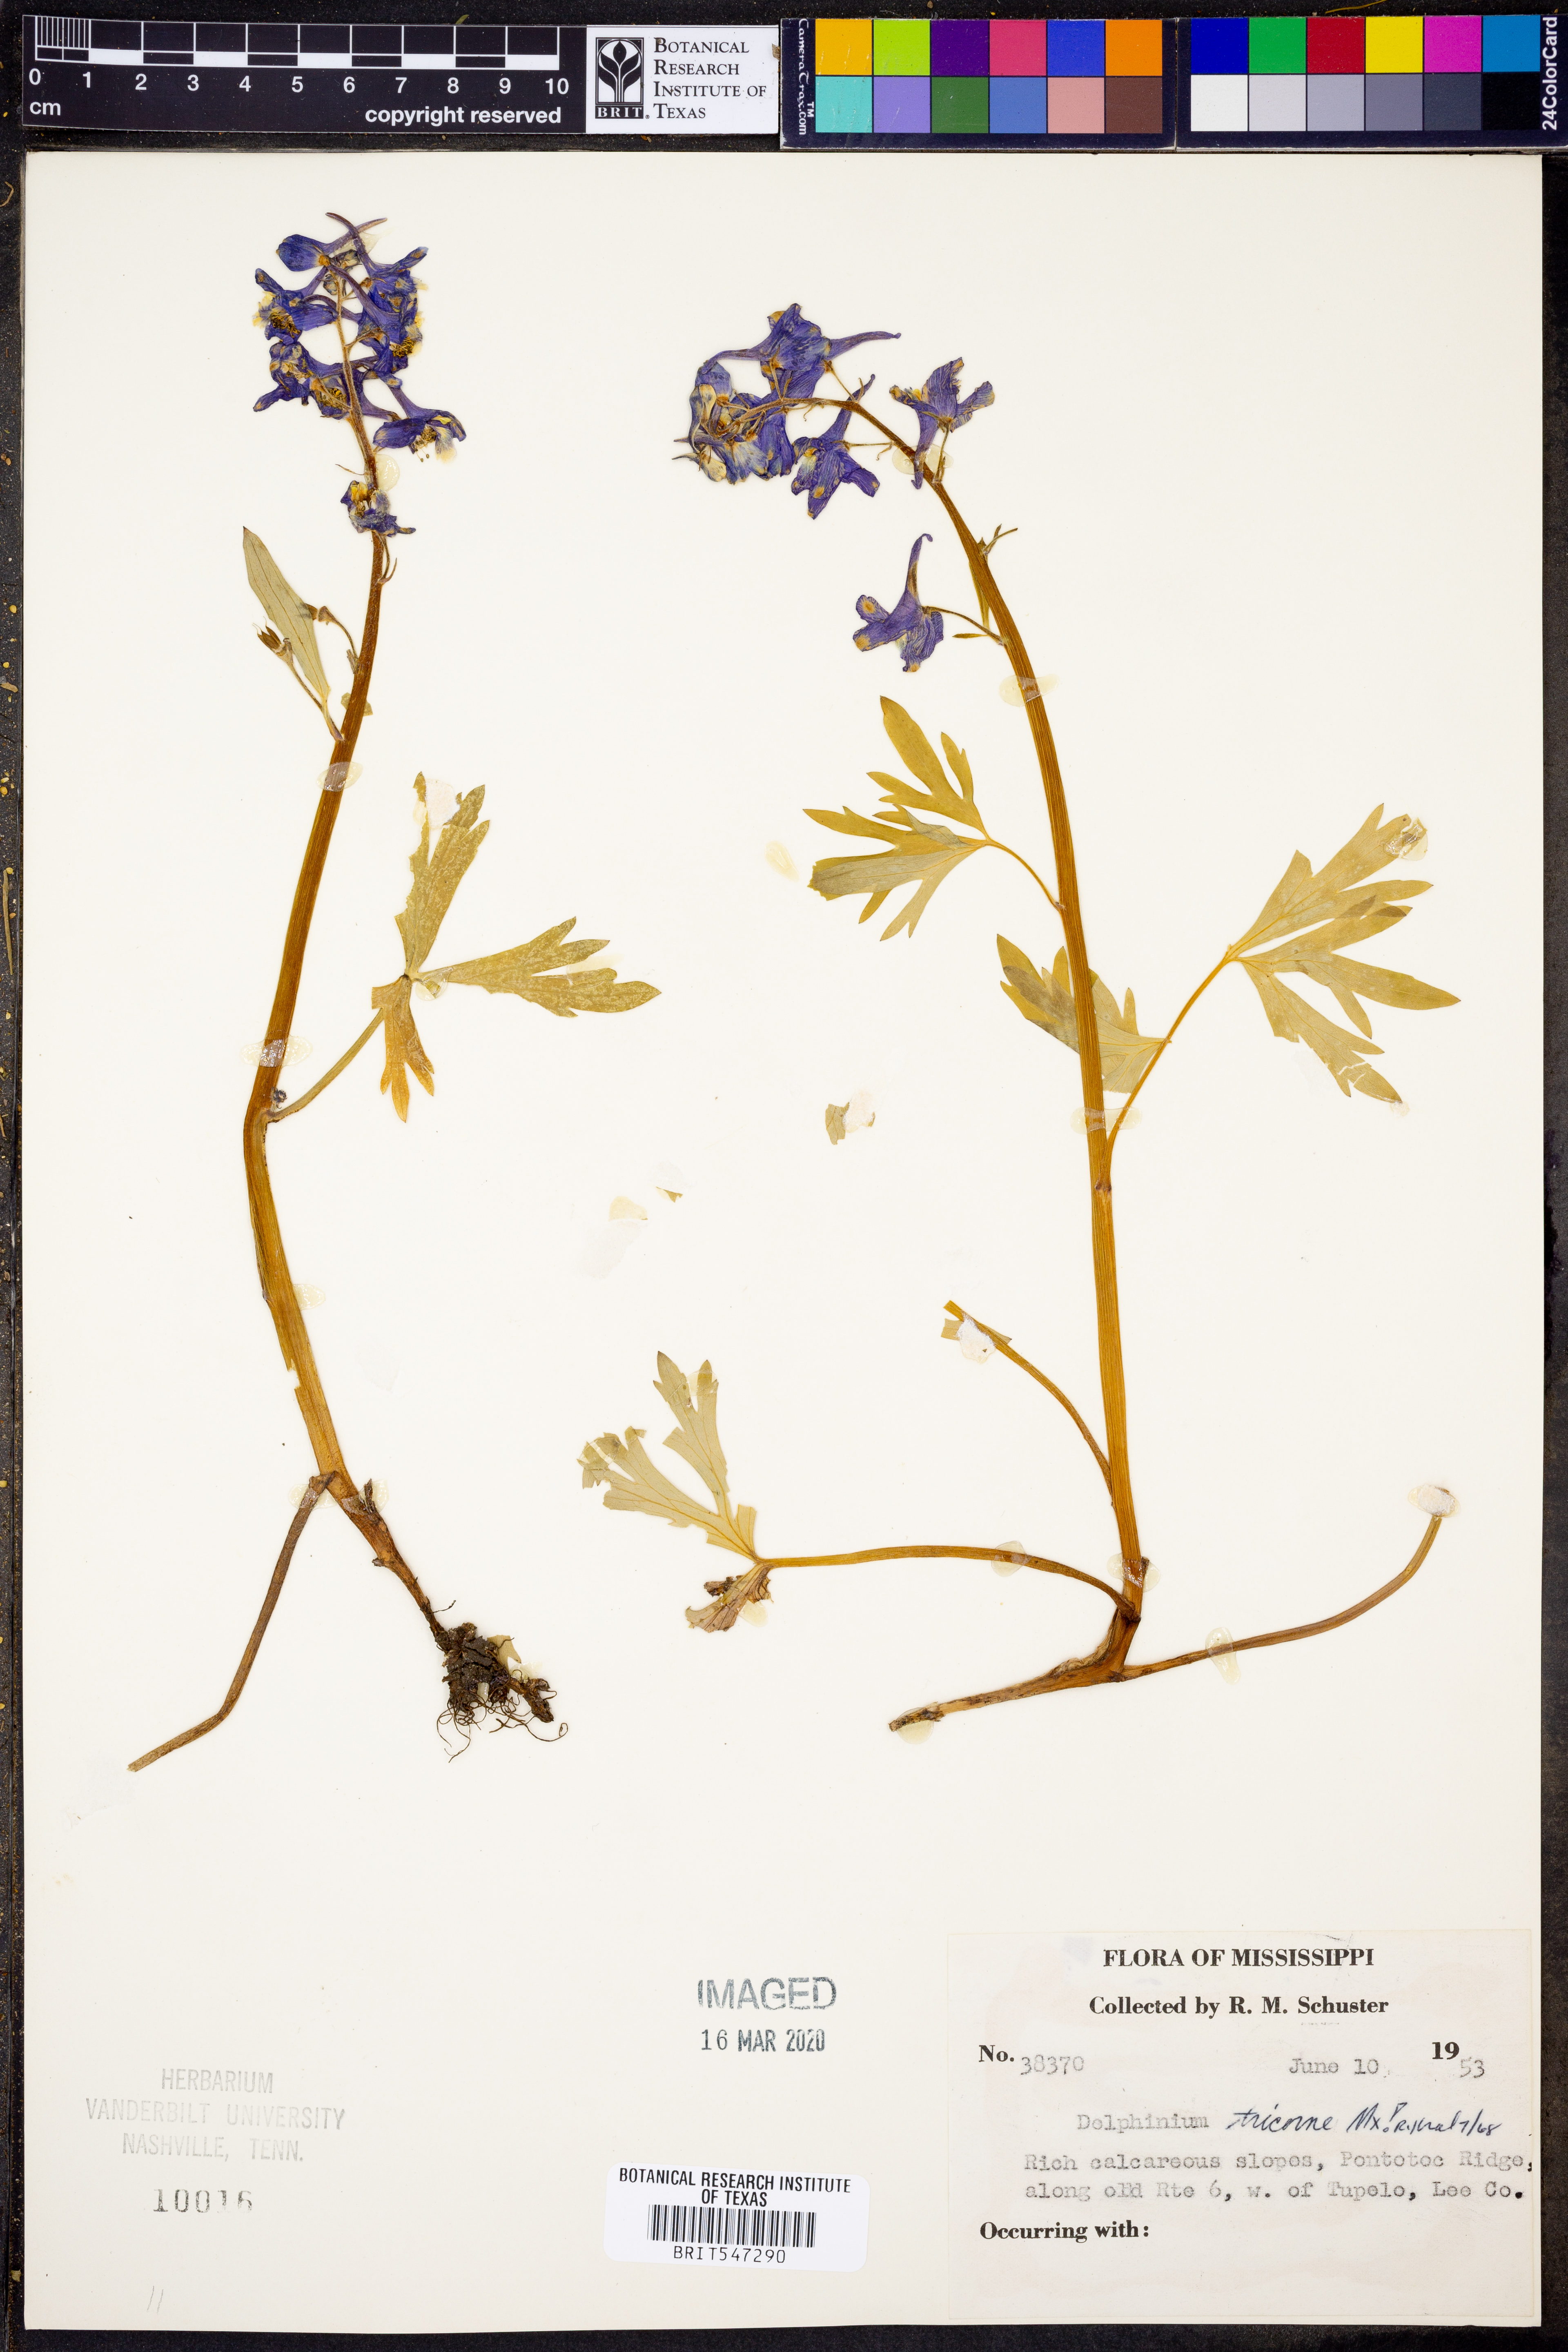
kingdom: Plantae
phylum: Tracheophyta
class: Magnoliopsida
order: Ranunculales
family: Ranunculaceae
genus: Delphinium
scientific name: Delphinium tricorne
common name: Dwarf larkspur
